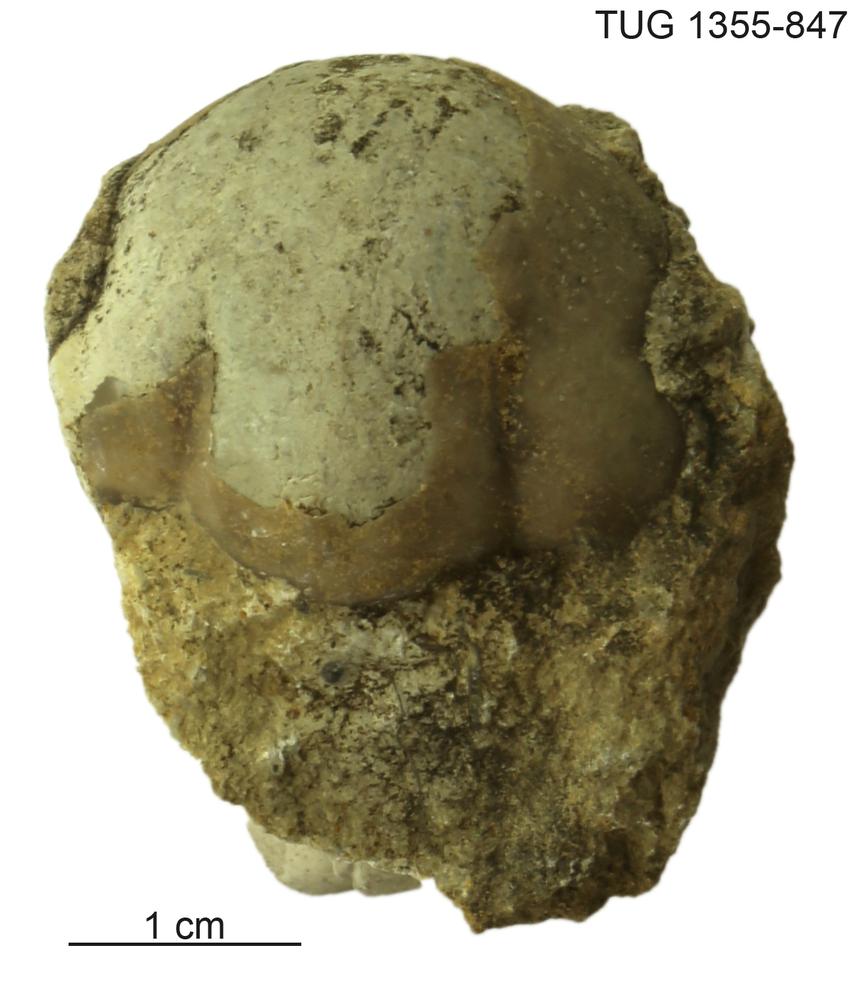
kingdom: Animalia
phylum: Arthropoda
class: Trilobita
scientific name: Trilobita
